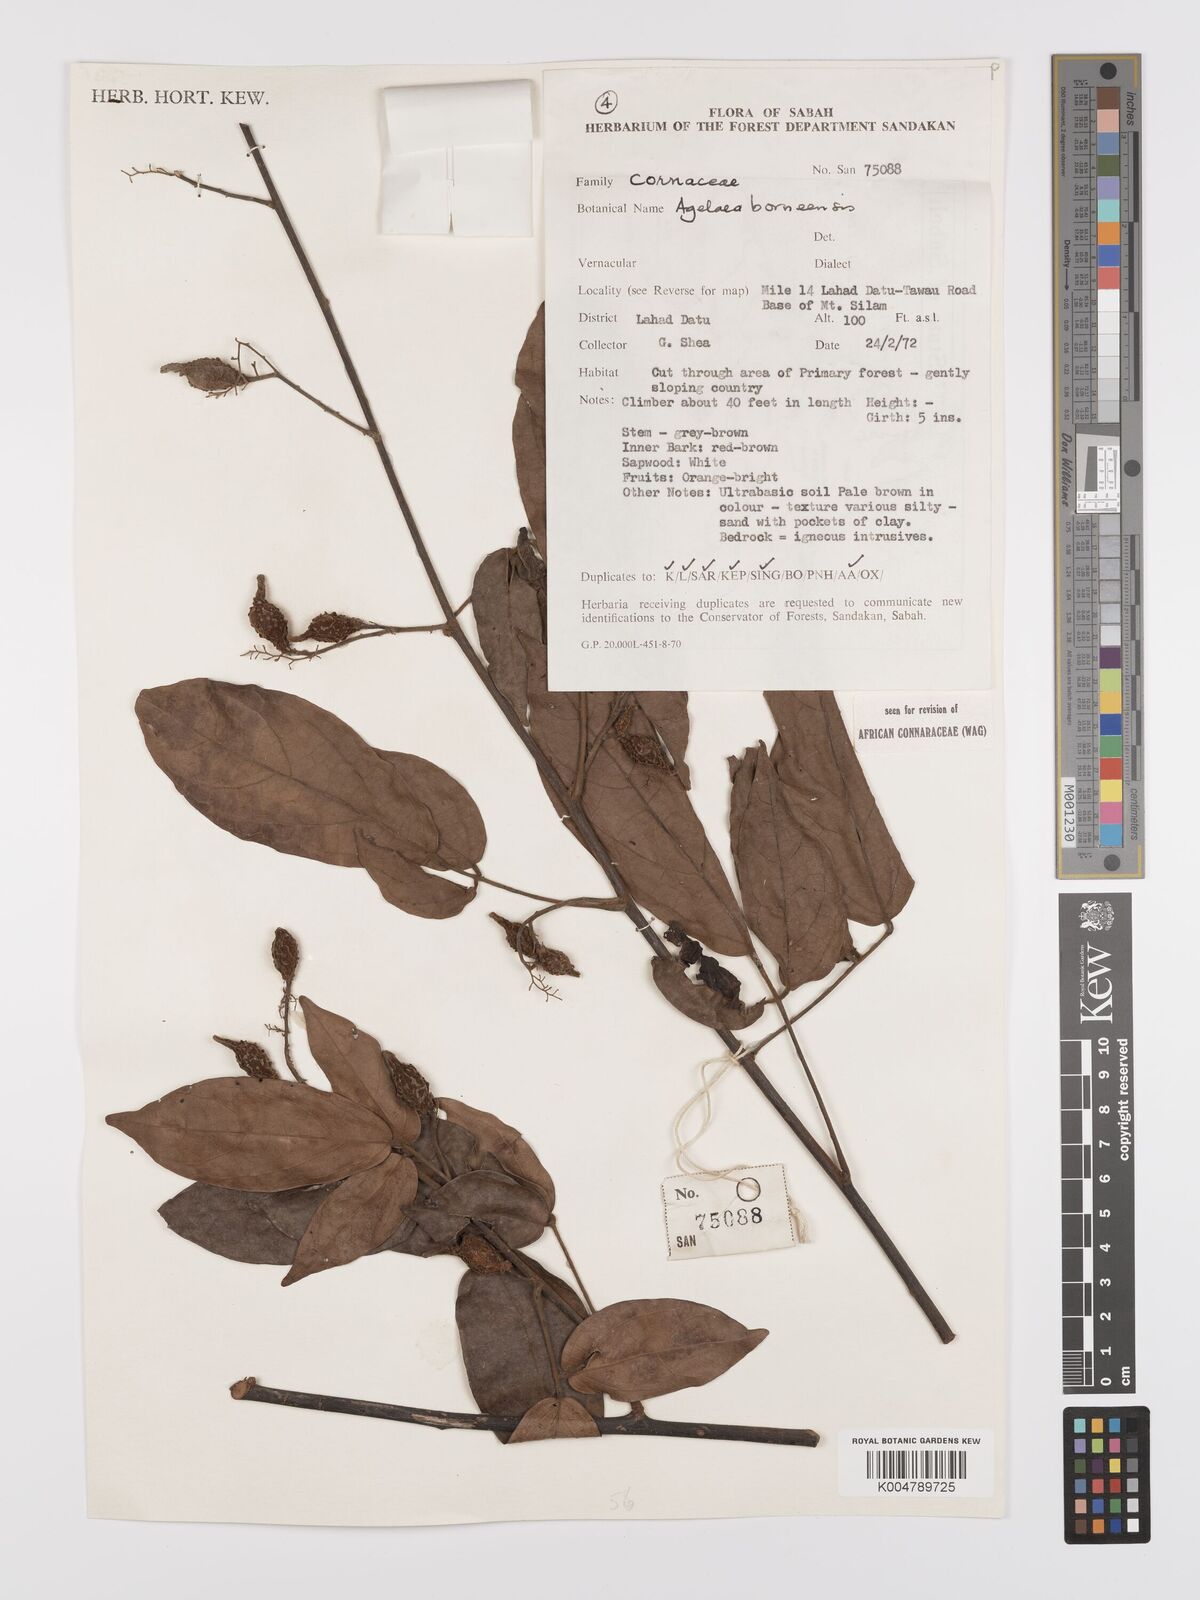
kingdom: Plantae
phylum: Tracheophyta
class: Magnoliopsida
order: Oxalidales
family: Connaraceae
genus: Agelaea
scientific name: Agelaea borneensis
